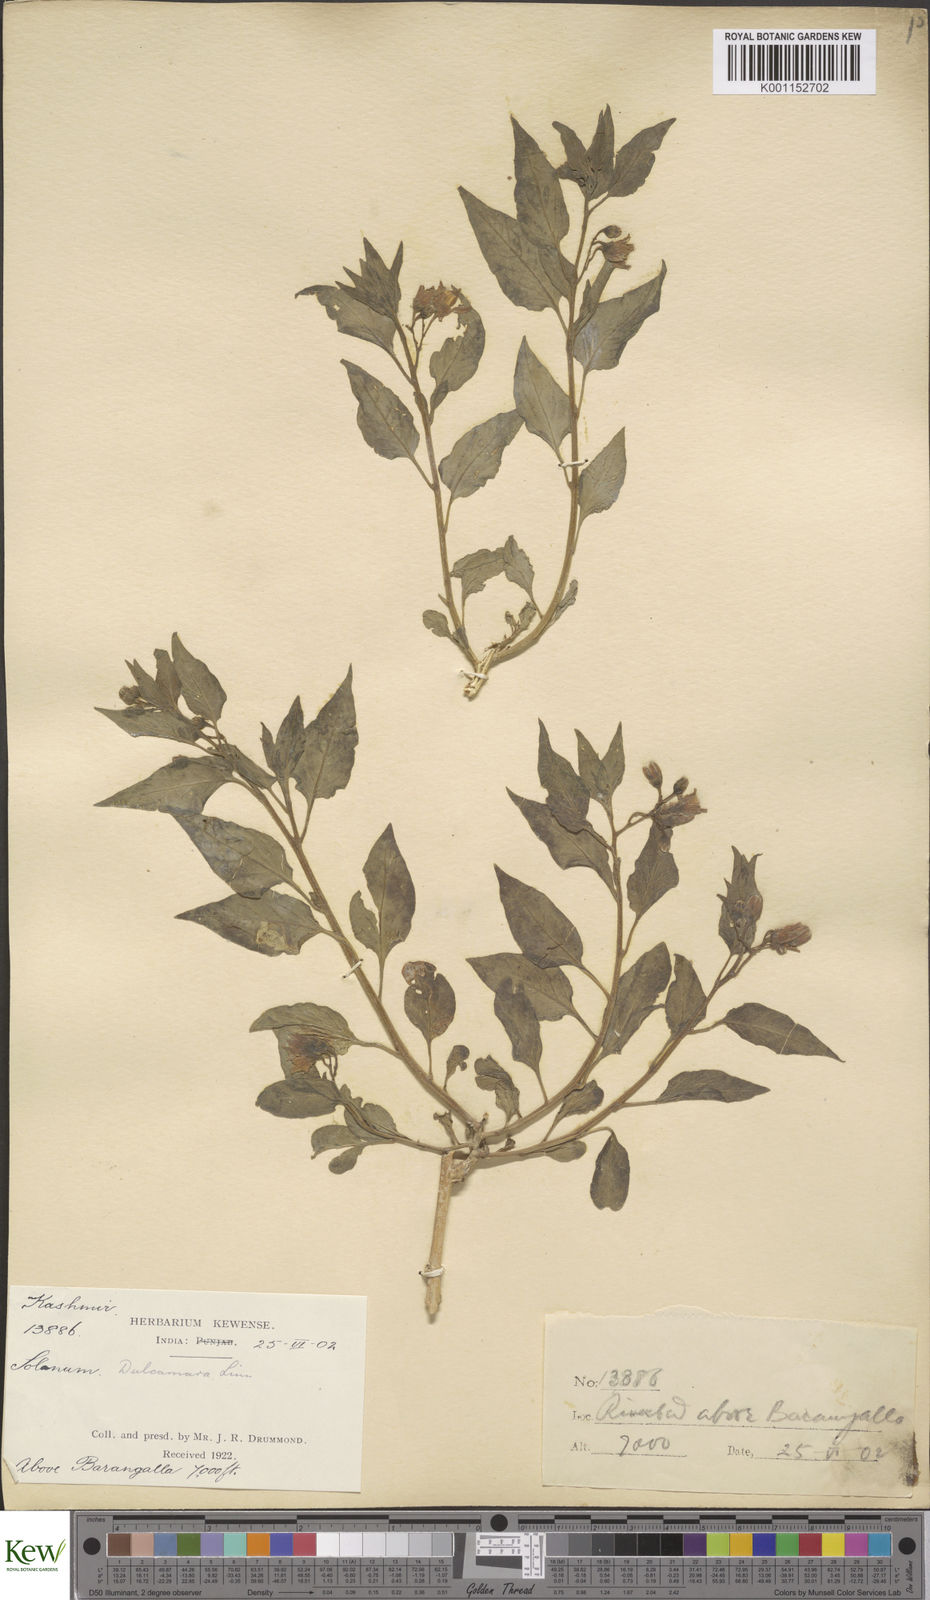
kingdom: Plantae
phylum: Tracheophyta
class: Magnoliopsida
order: Solanales
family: Solanaceae
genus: Solanum
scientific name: Solanum dulcamara
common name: Climbing nightshade
